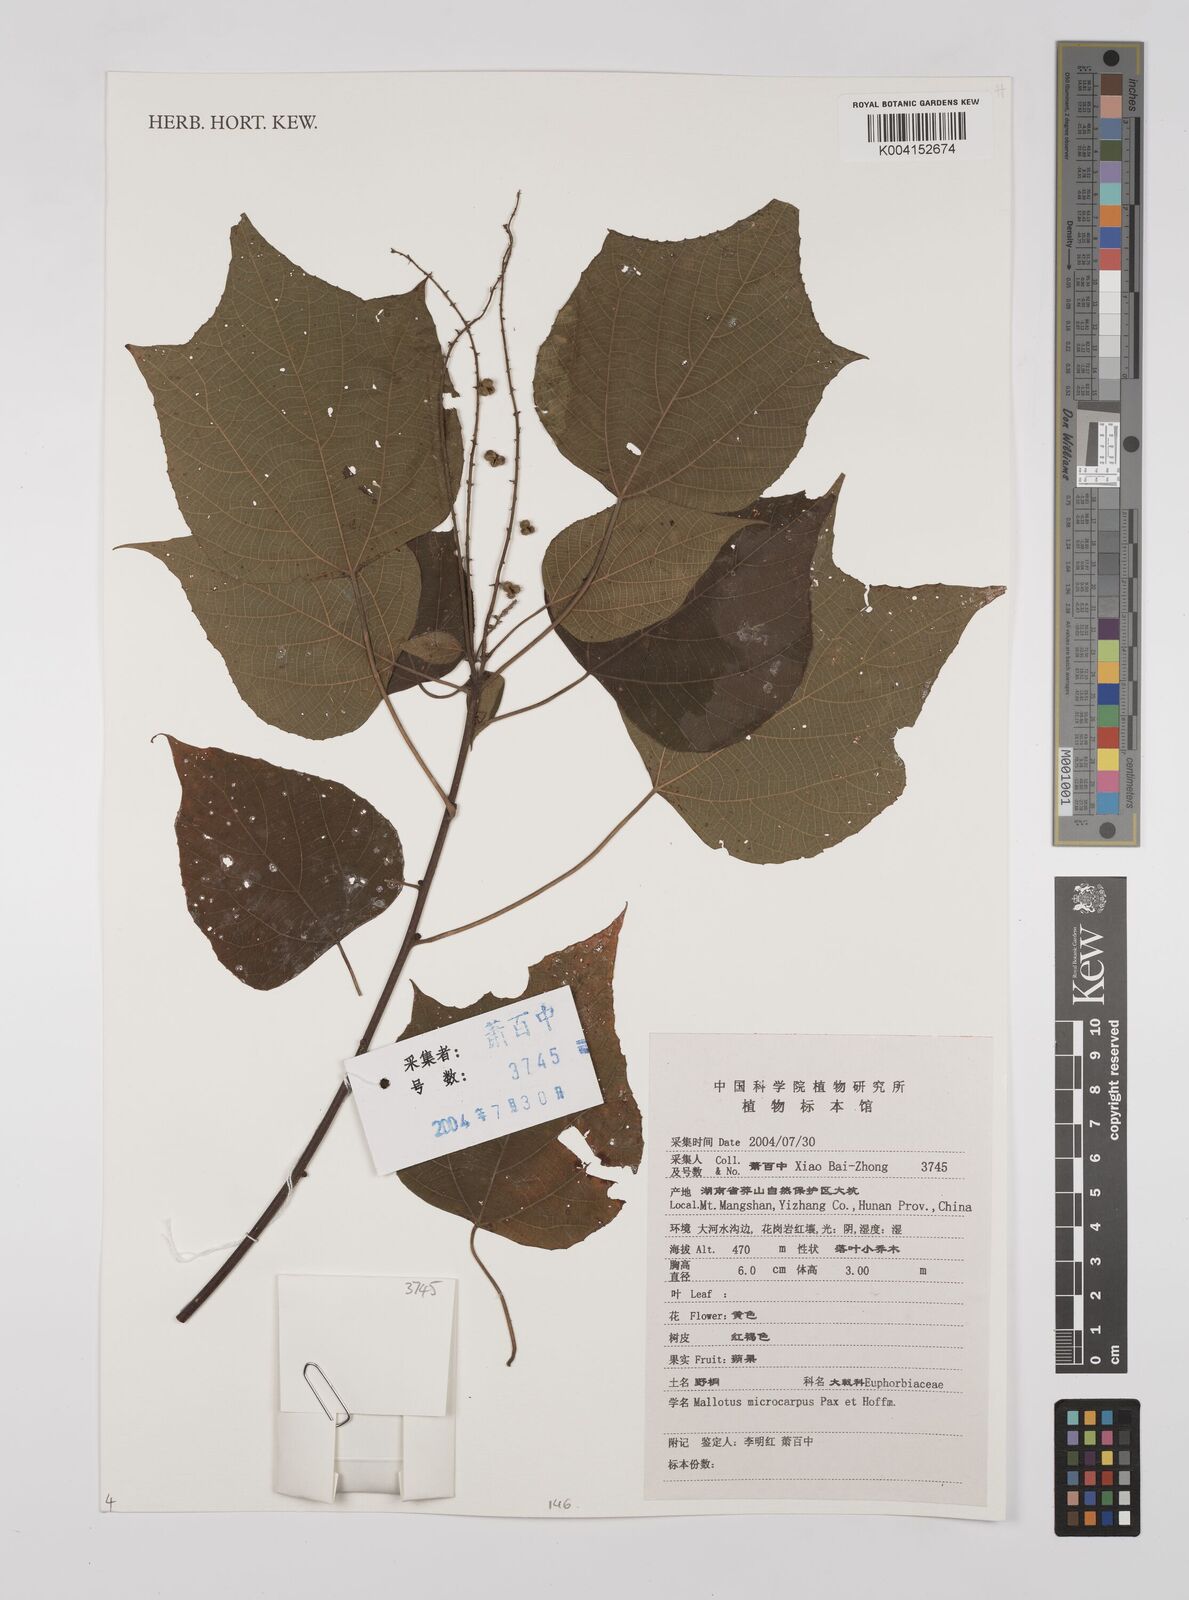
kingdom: Plantae
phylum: Tracheophyta
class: Magnoliopsida
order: Malpighiales
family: Euphorbiaceae
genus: Mallotus
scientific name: Mallotus microcarpus
